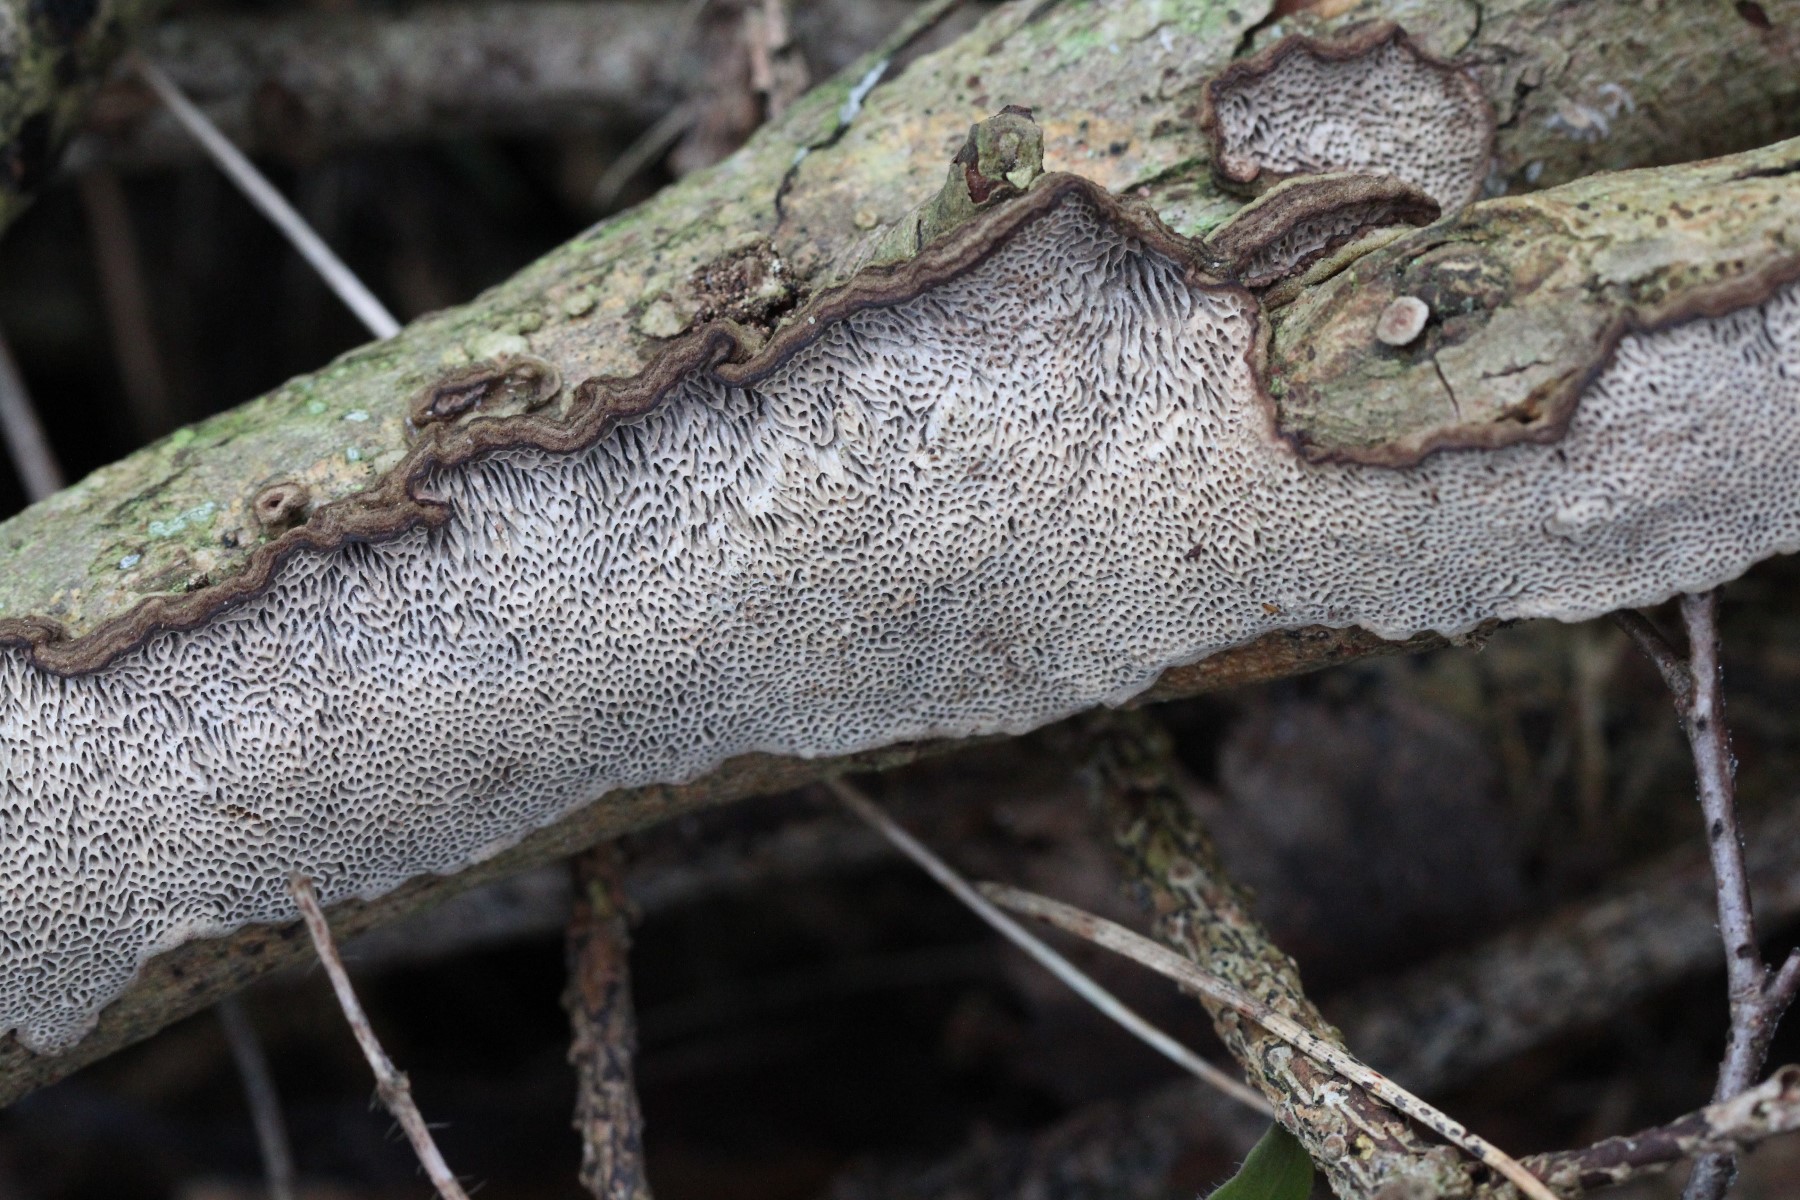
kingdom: Fungi
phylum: Basidiomycota
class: Agaricomycetes
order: Polyporales
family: Polyporaceae
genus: Podofomes
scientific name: Podofomes mollis
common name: blød begporesvamp
